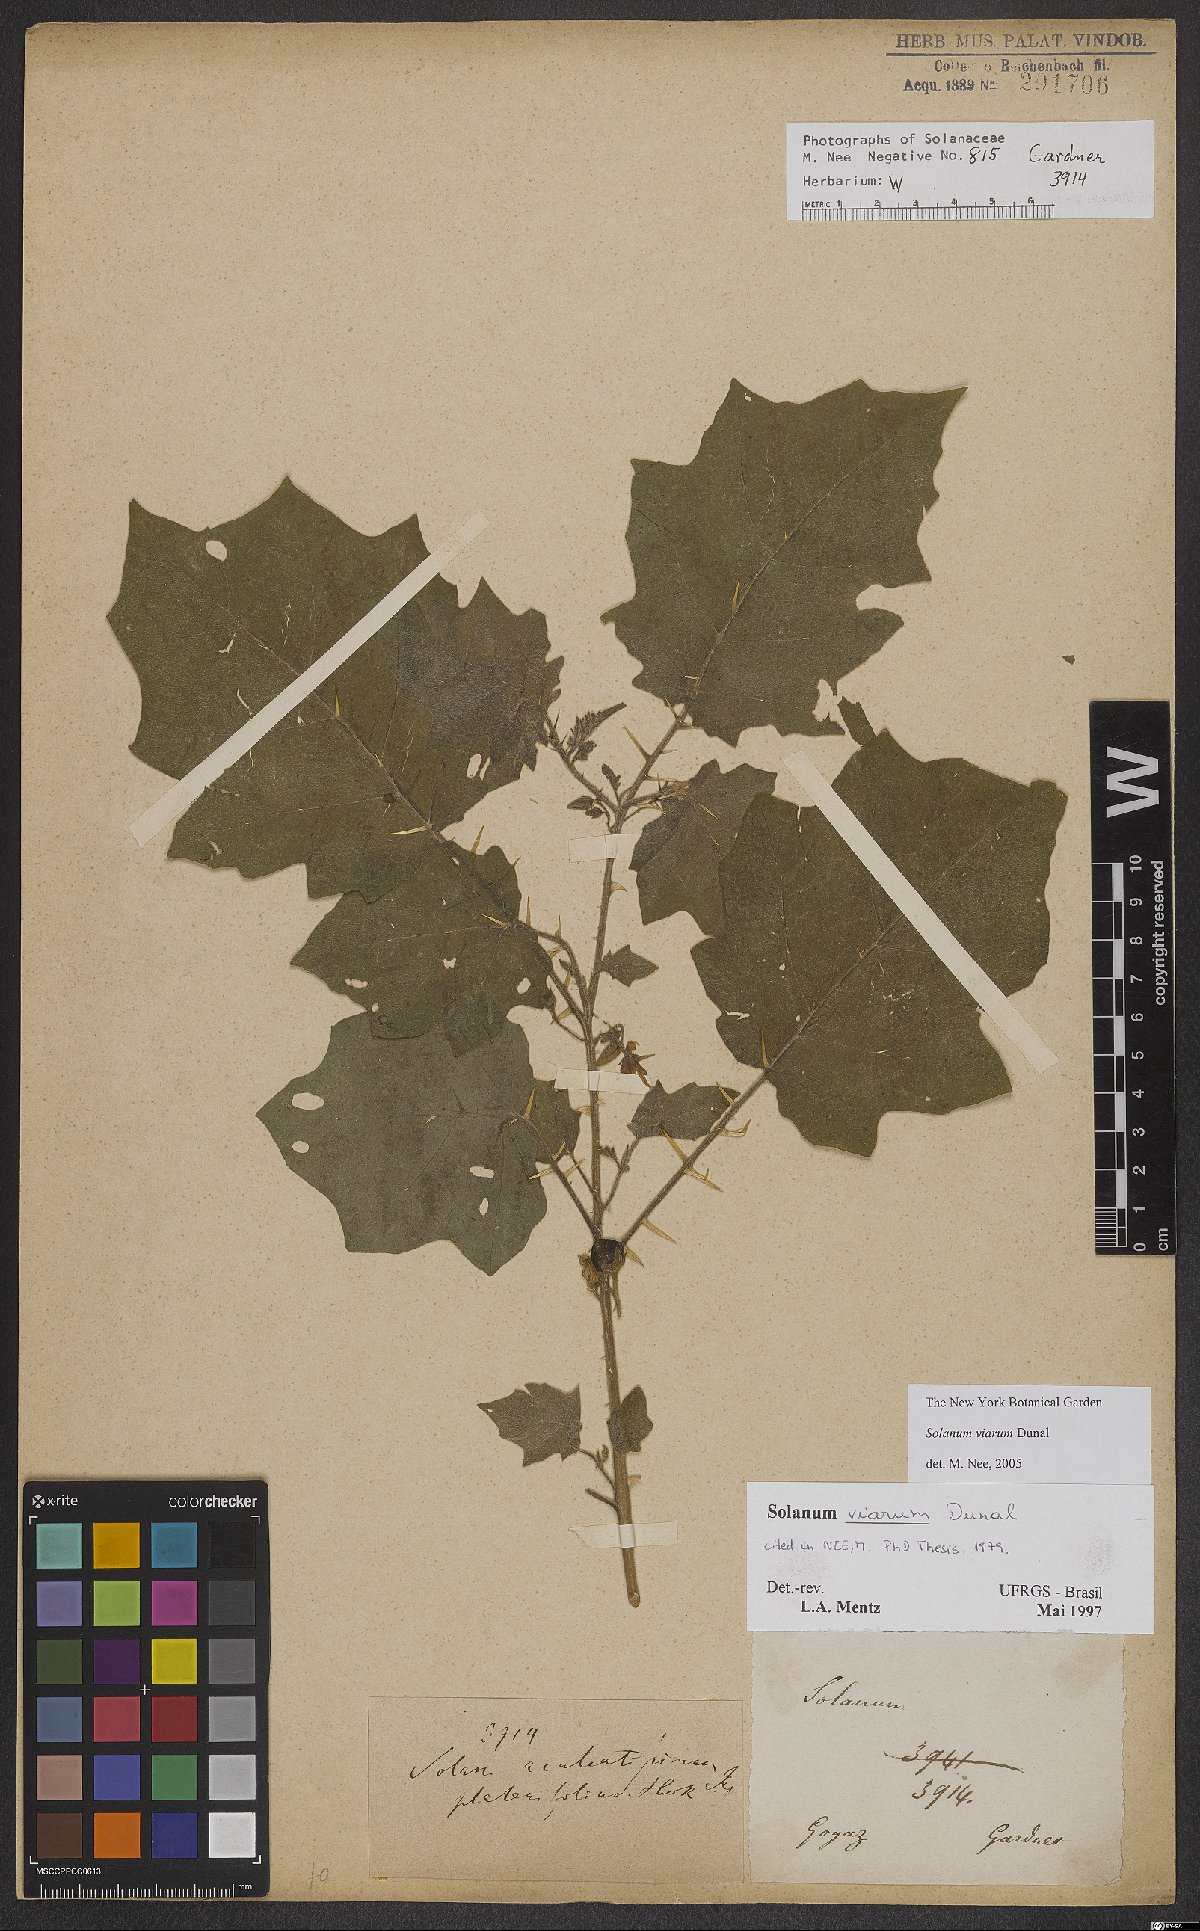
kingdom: Plantae
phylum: Tracheophyta
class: Magnoliopsida
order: Solanales
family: Solanaceae
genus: Solanum
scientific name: Solanum viarum
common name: Tropical soda apple
